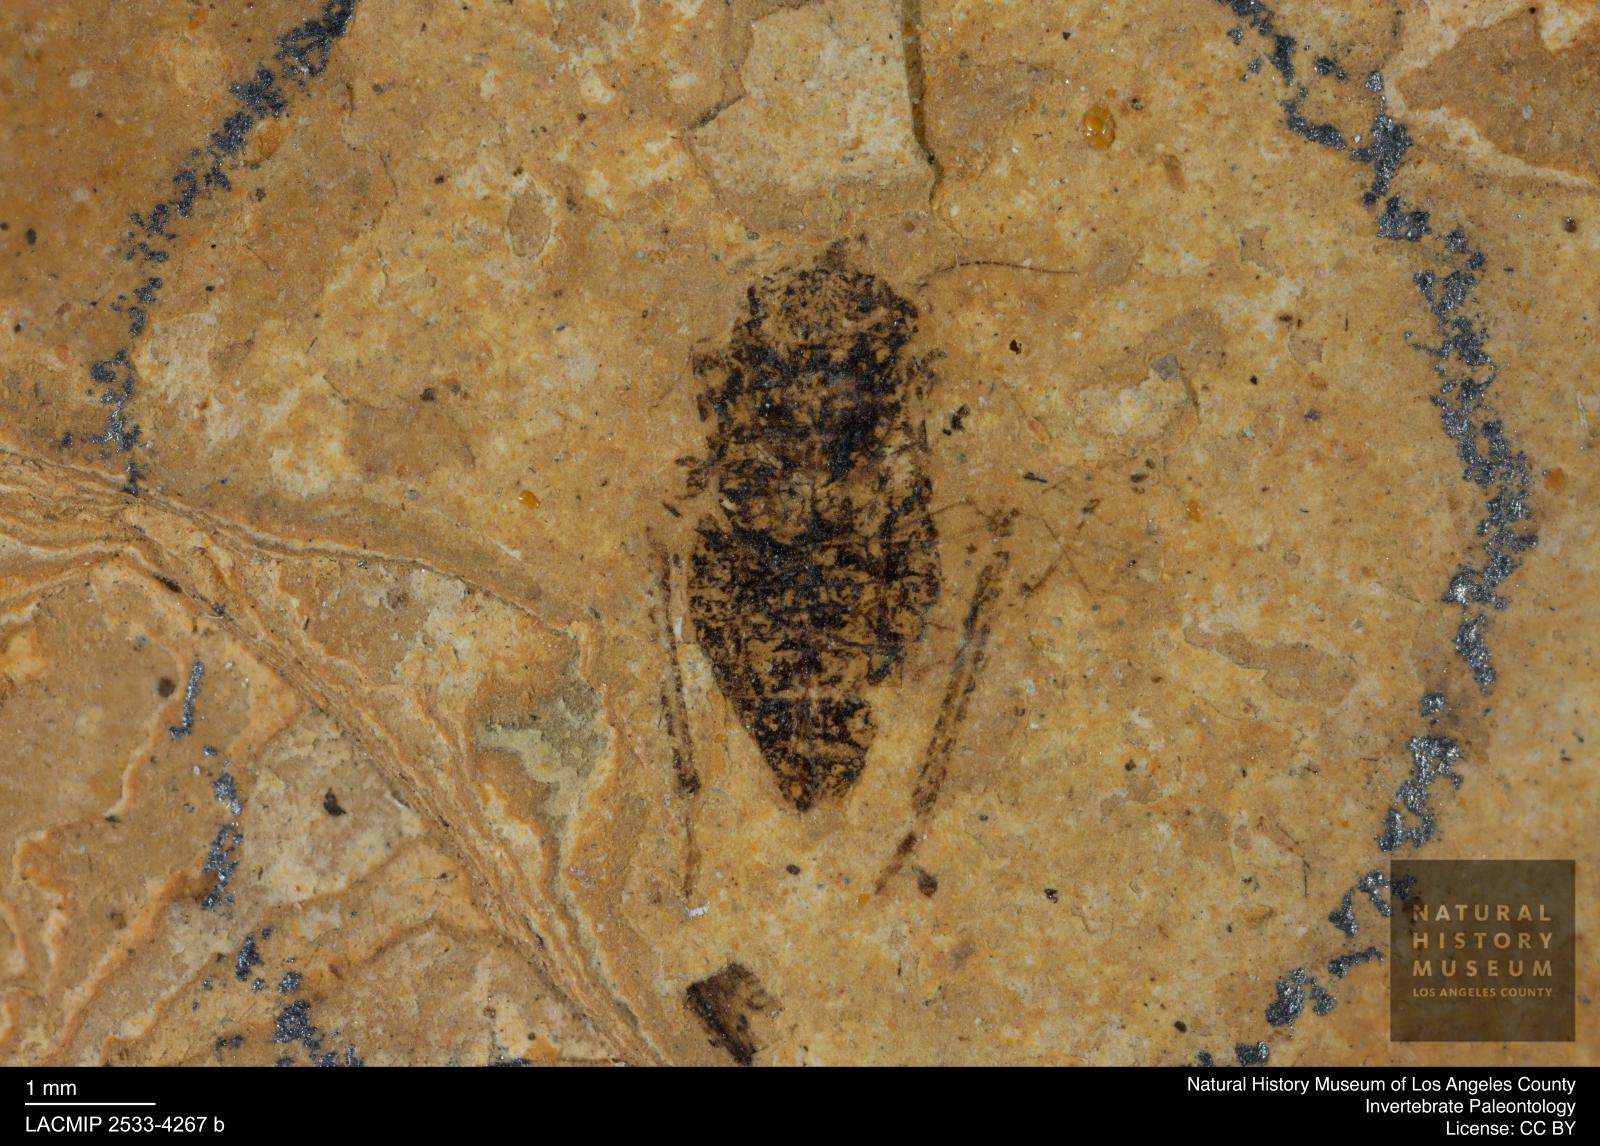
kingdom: Animalia
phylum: Arthropoda
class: Insecta
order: Hemiptera
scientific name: Hemiptera
